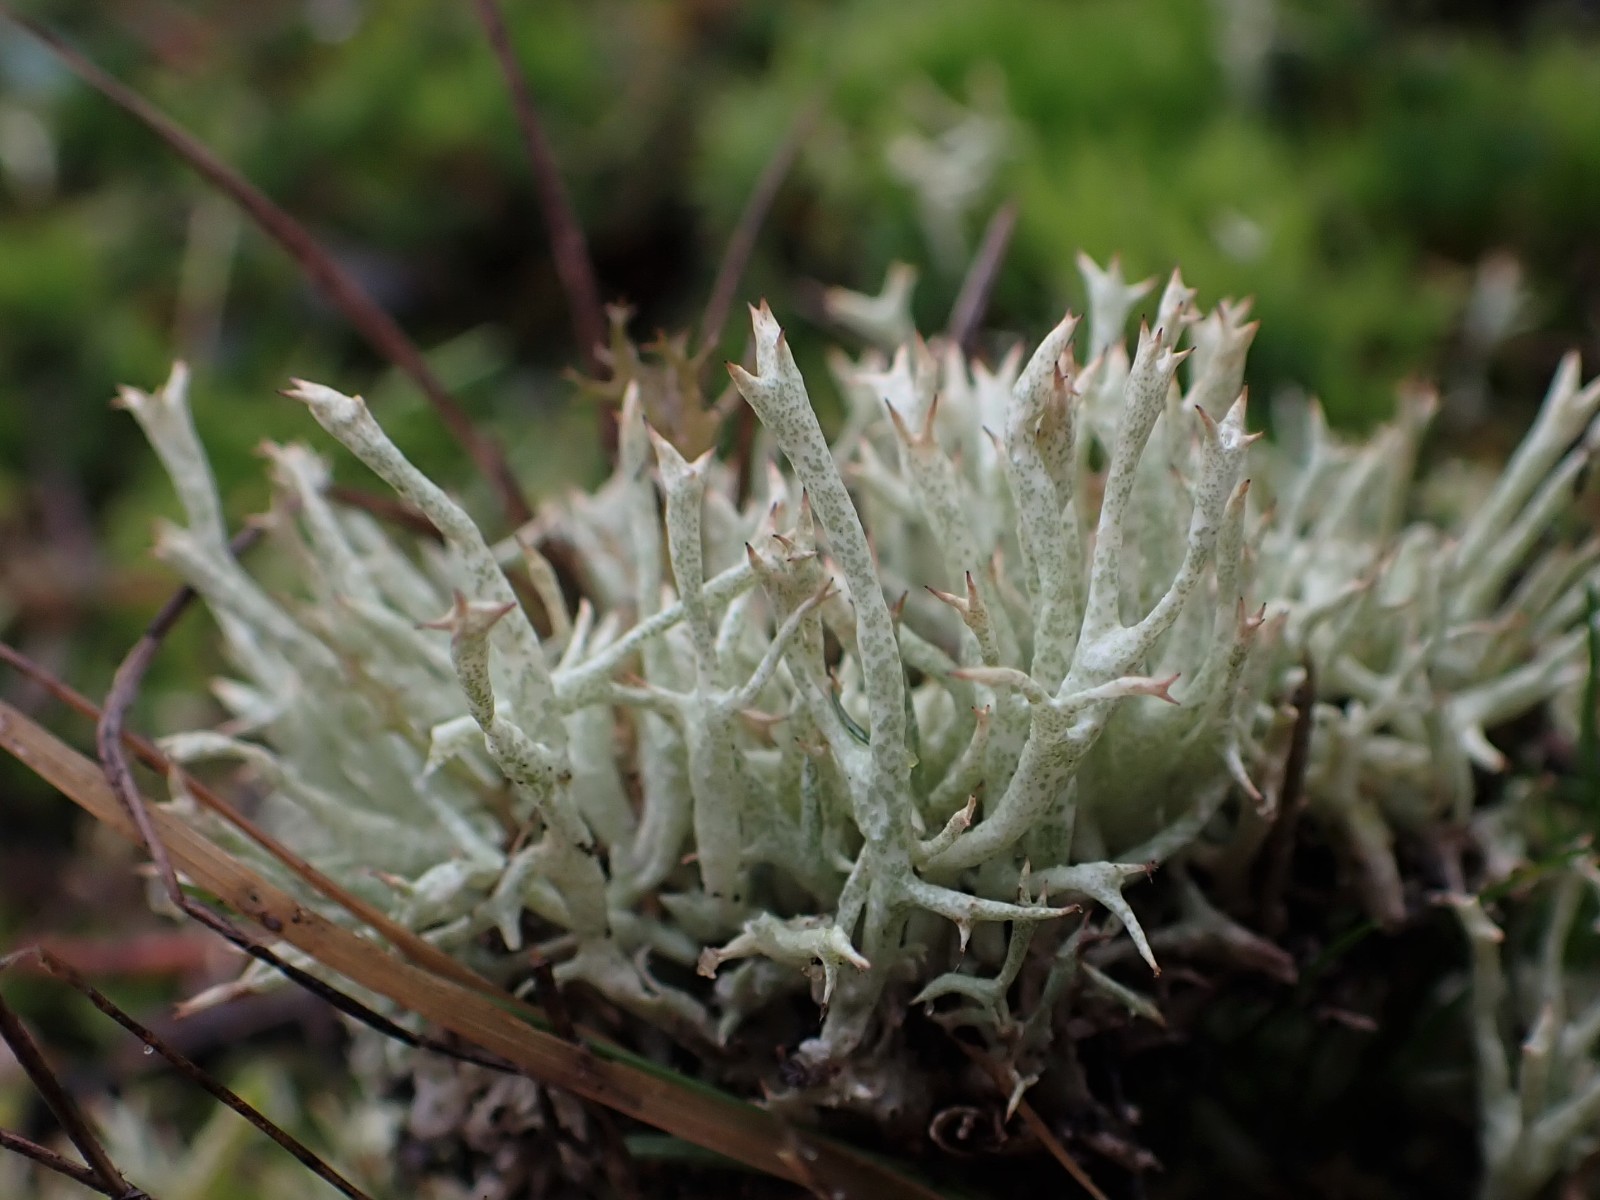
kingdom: Fungi
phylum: Ascomycota
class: Lecanoromycetes
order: Lecanorales
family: Cladoniaceae
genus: Cladonia
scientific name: Cladonia uncialis
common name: pigget bægerlav
